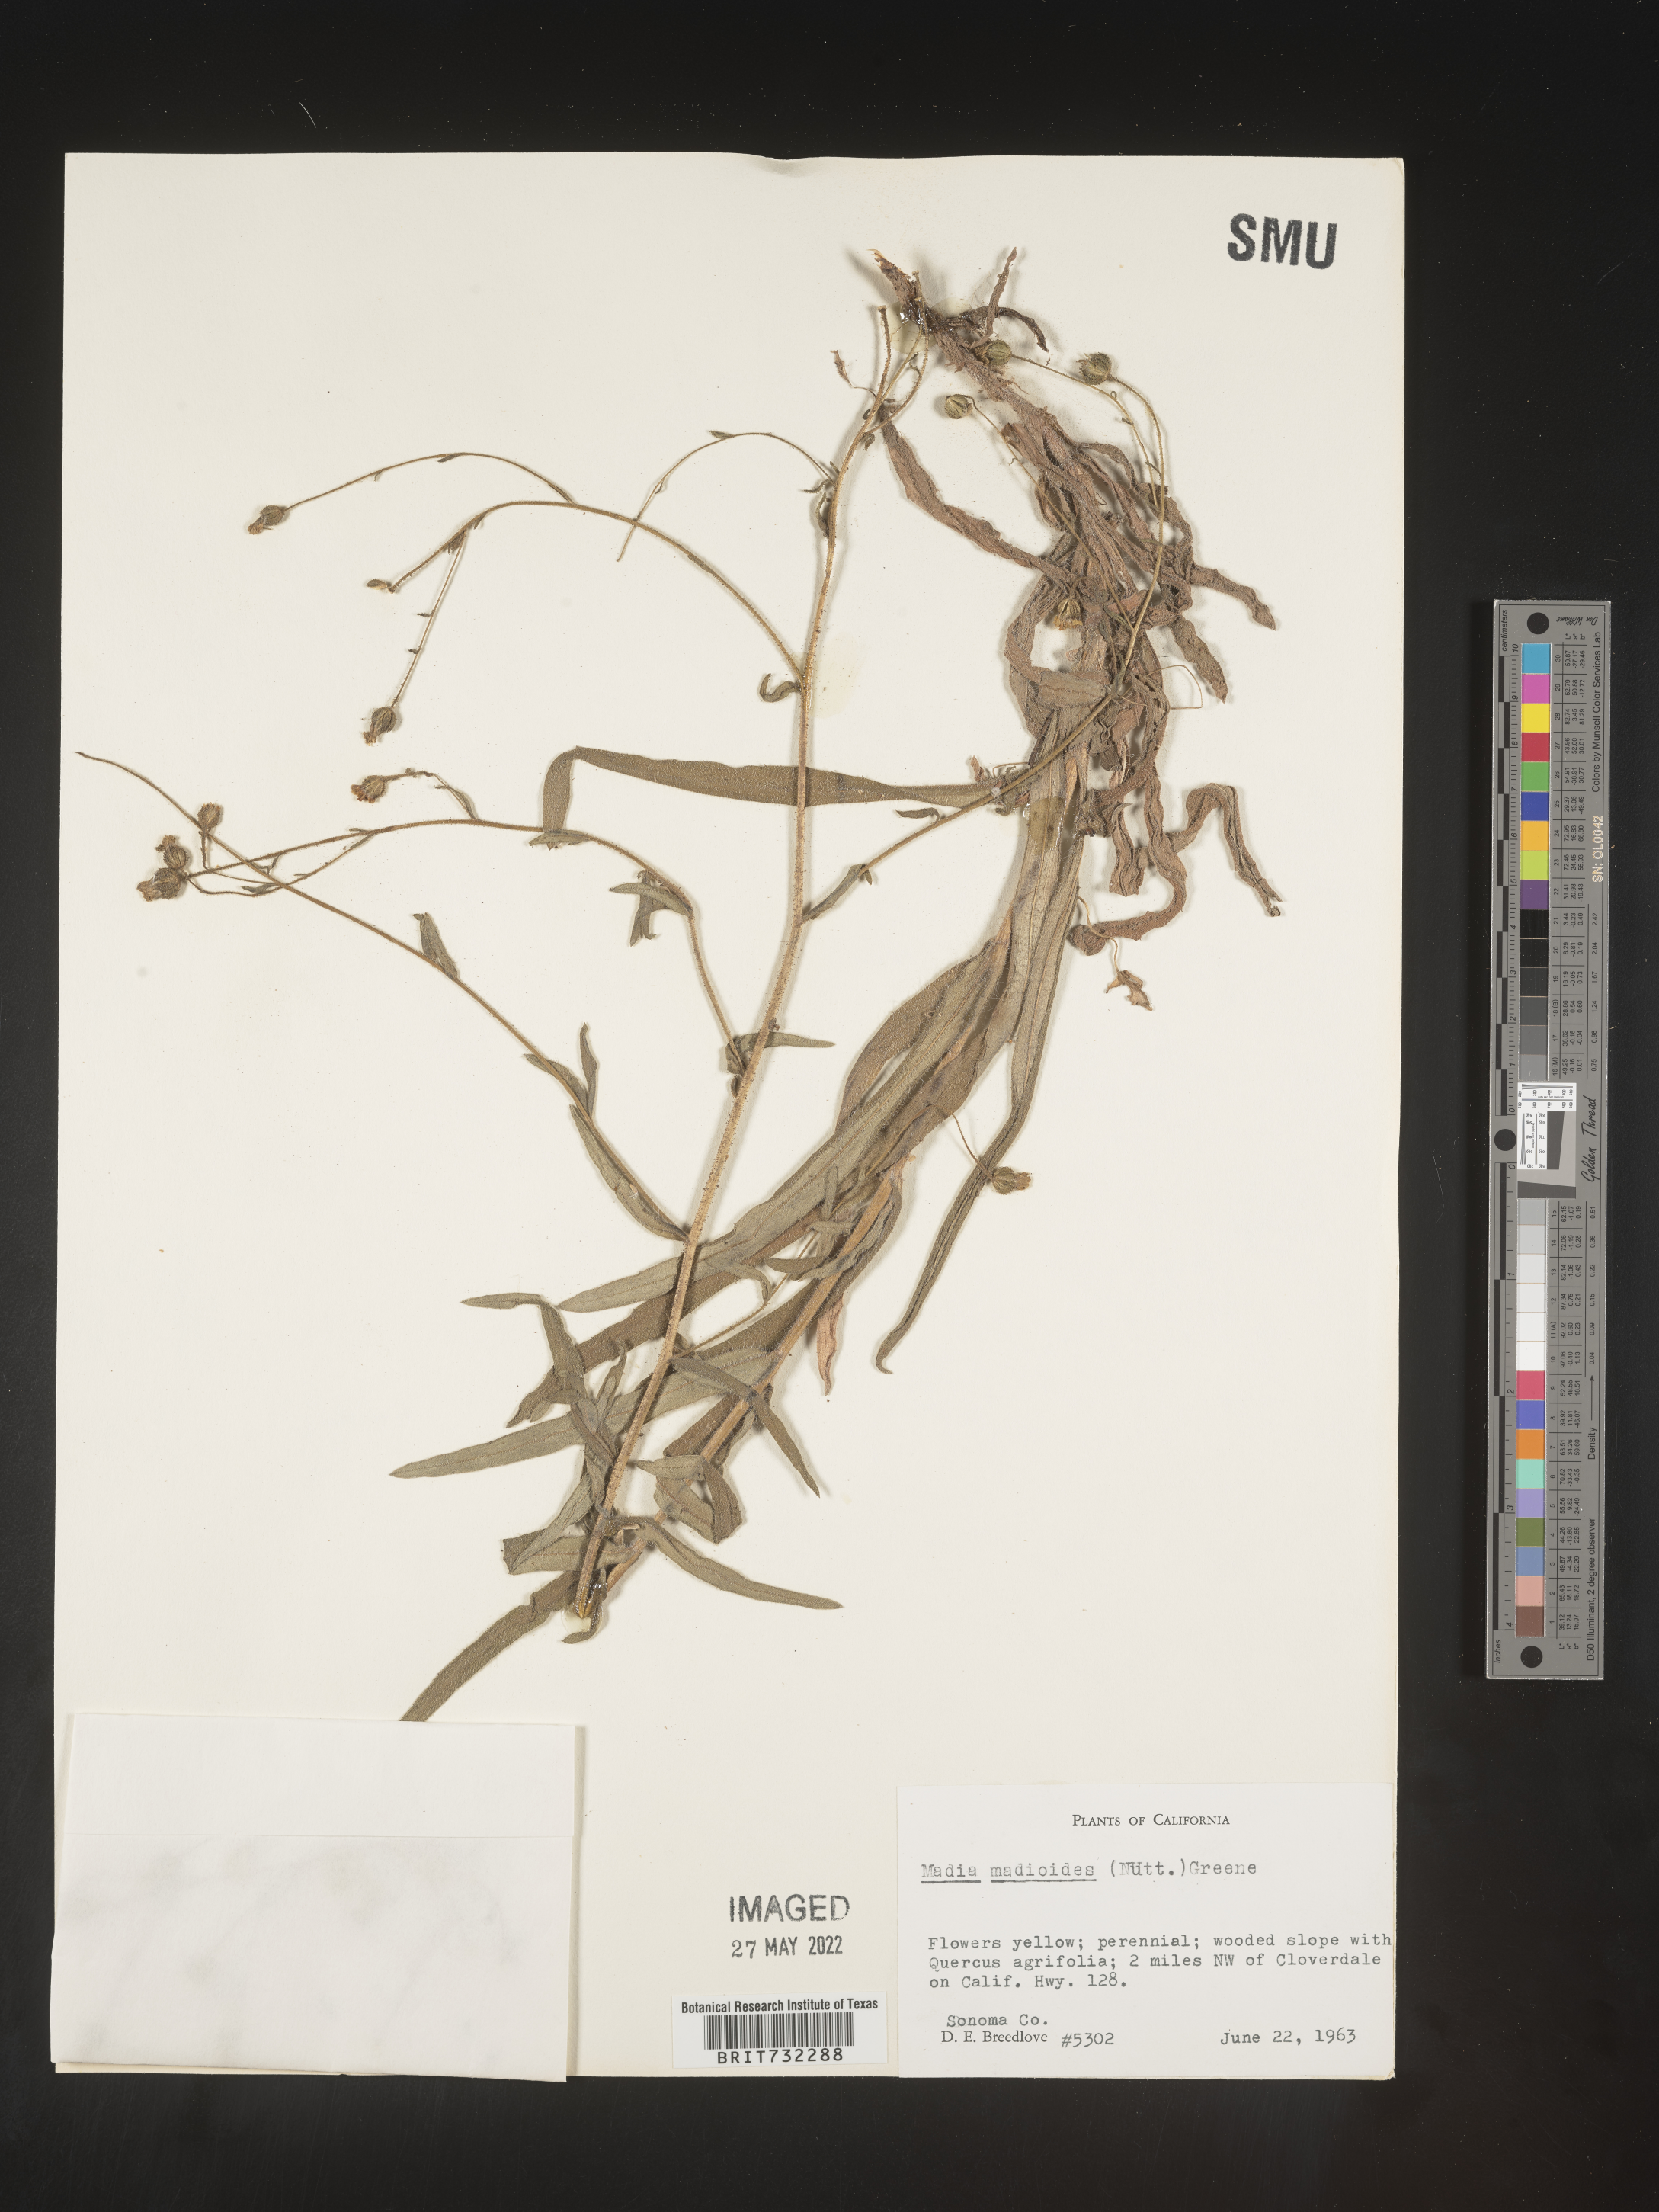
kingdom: Plantae
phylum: Tracheophyta
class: Magnoliopsida
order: Asterales
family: Asteraceae
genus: Madia
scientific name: Madia
